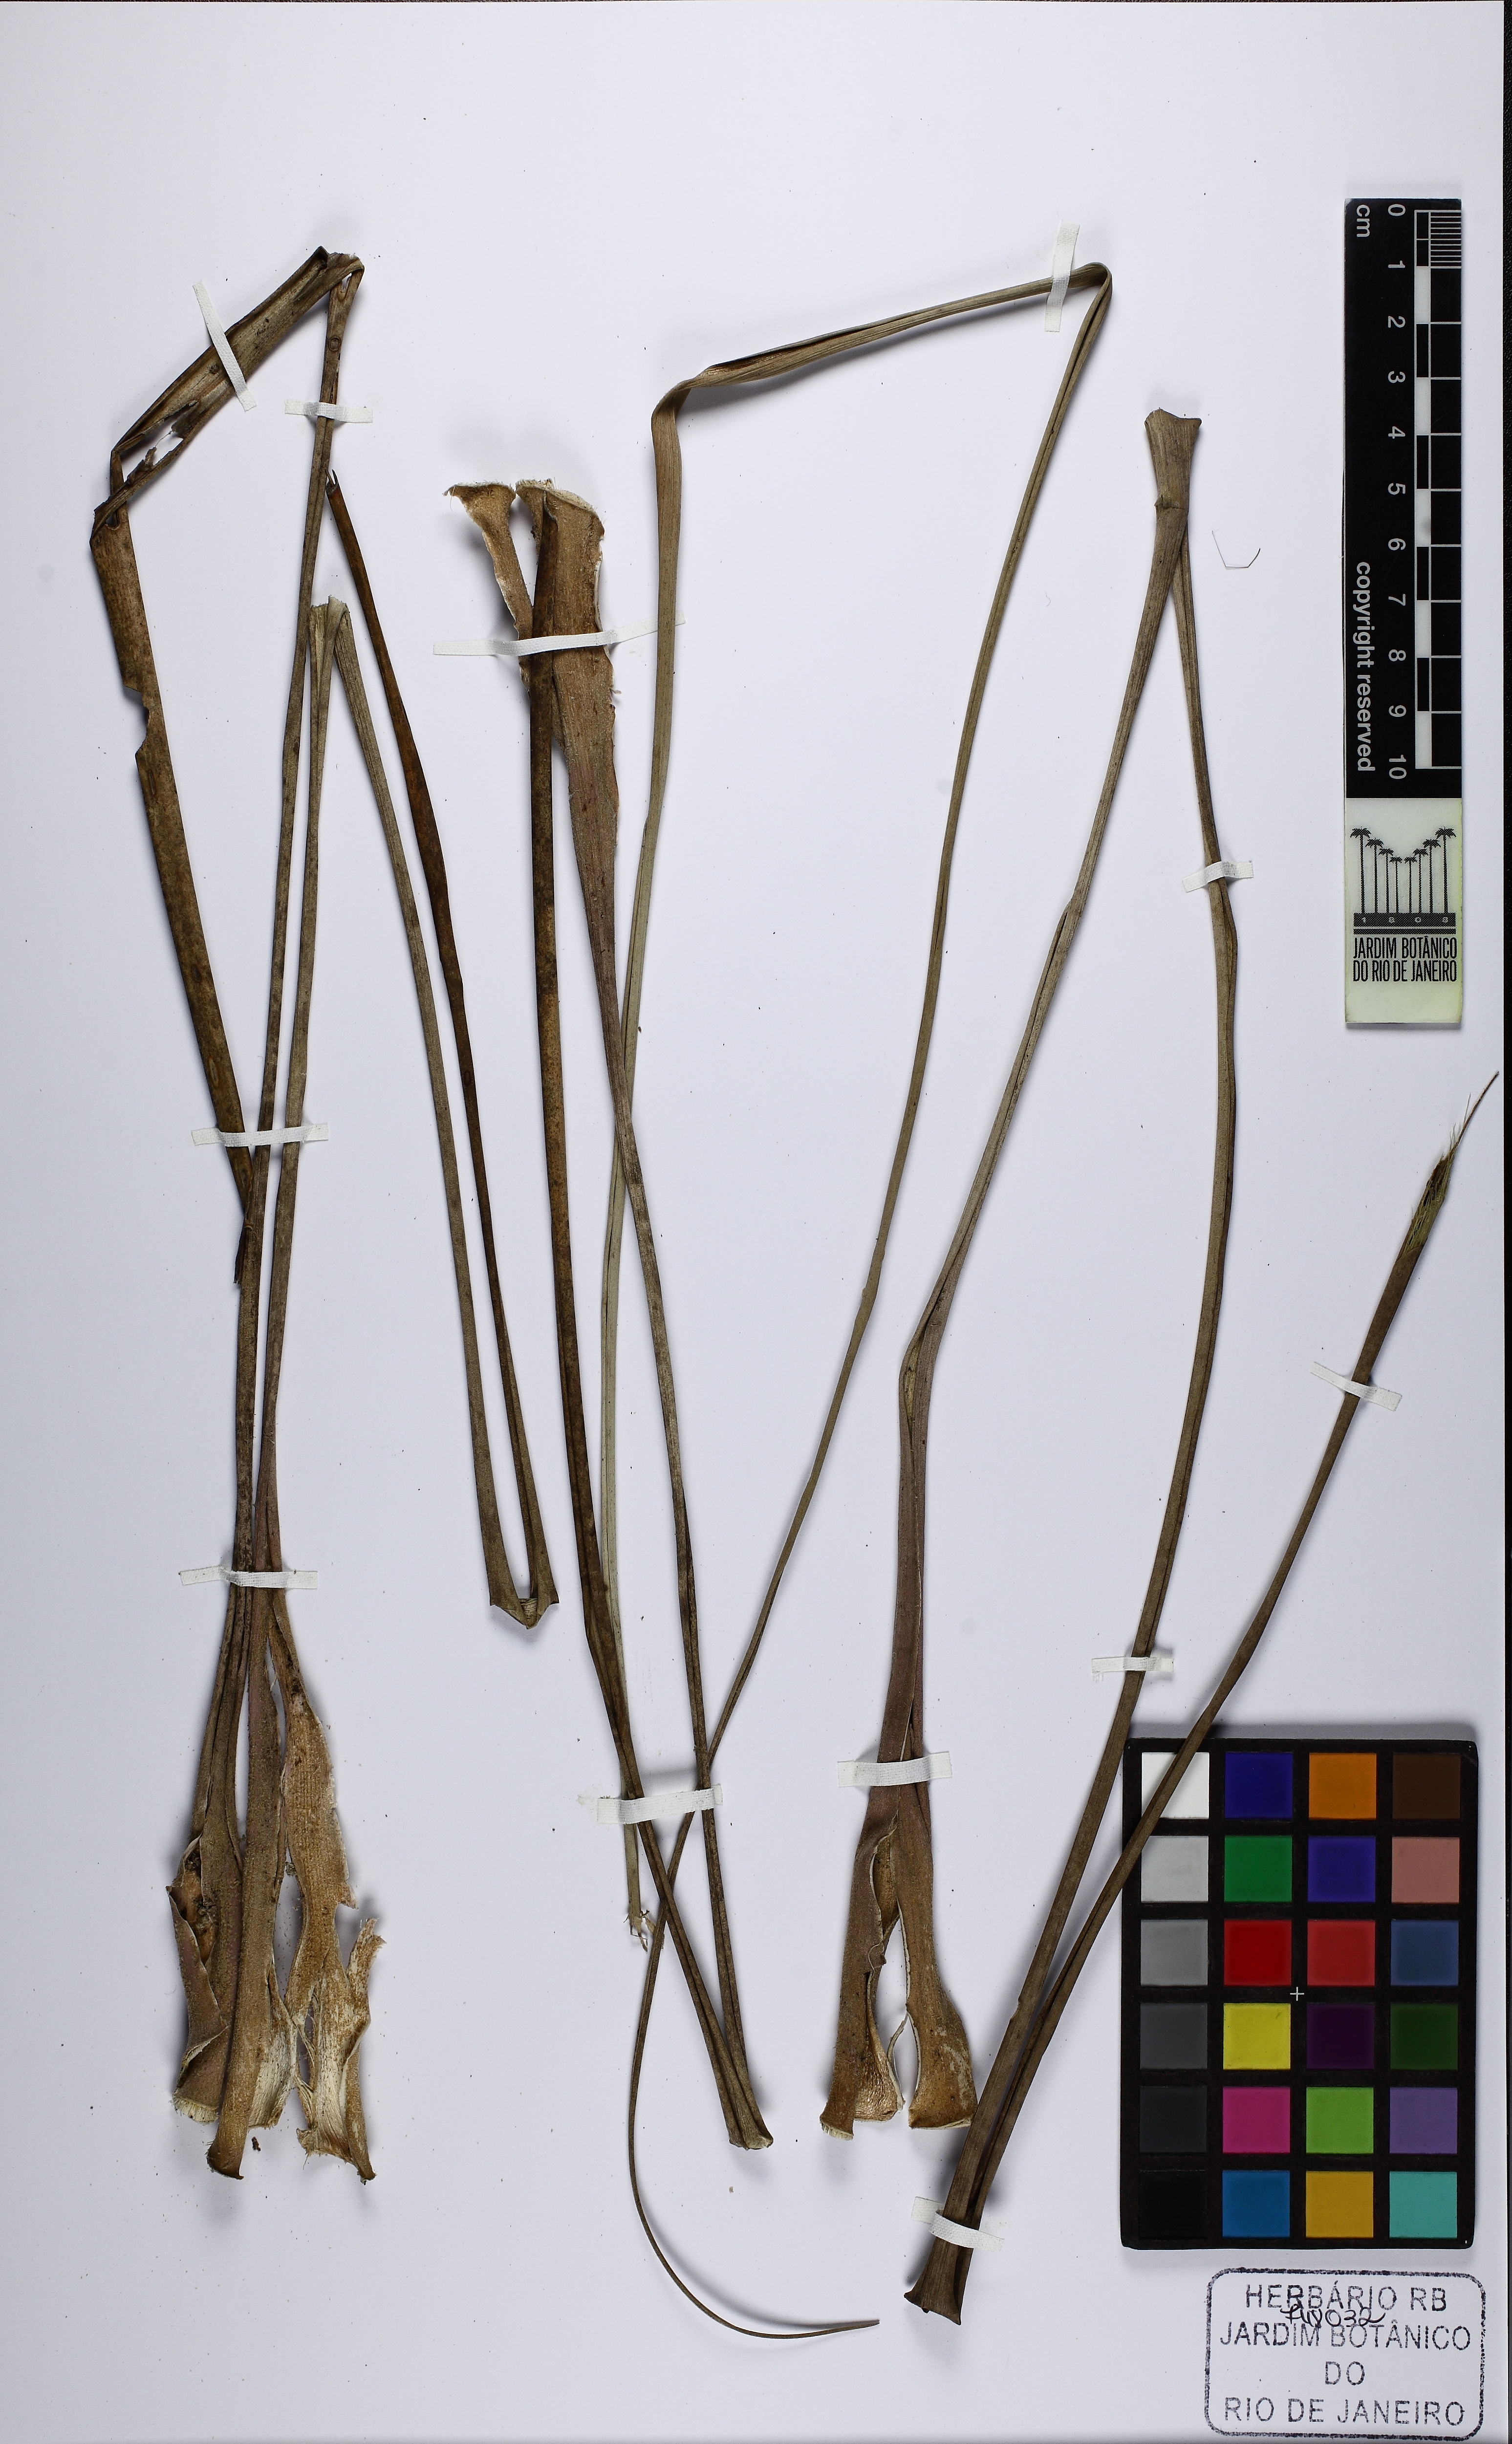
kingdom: Plantae
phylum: Tracheophyta
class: Liliopsida
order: Poales
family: Bromeliaceae
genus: Waltillia
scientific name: Waltillia hatschbachii
